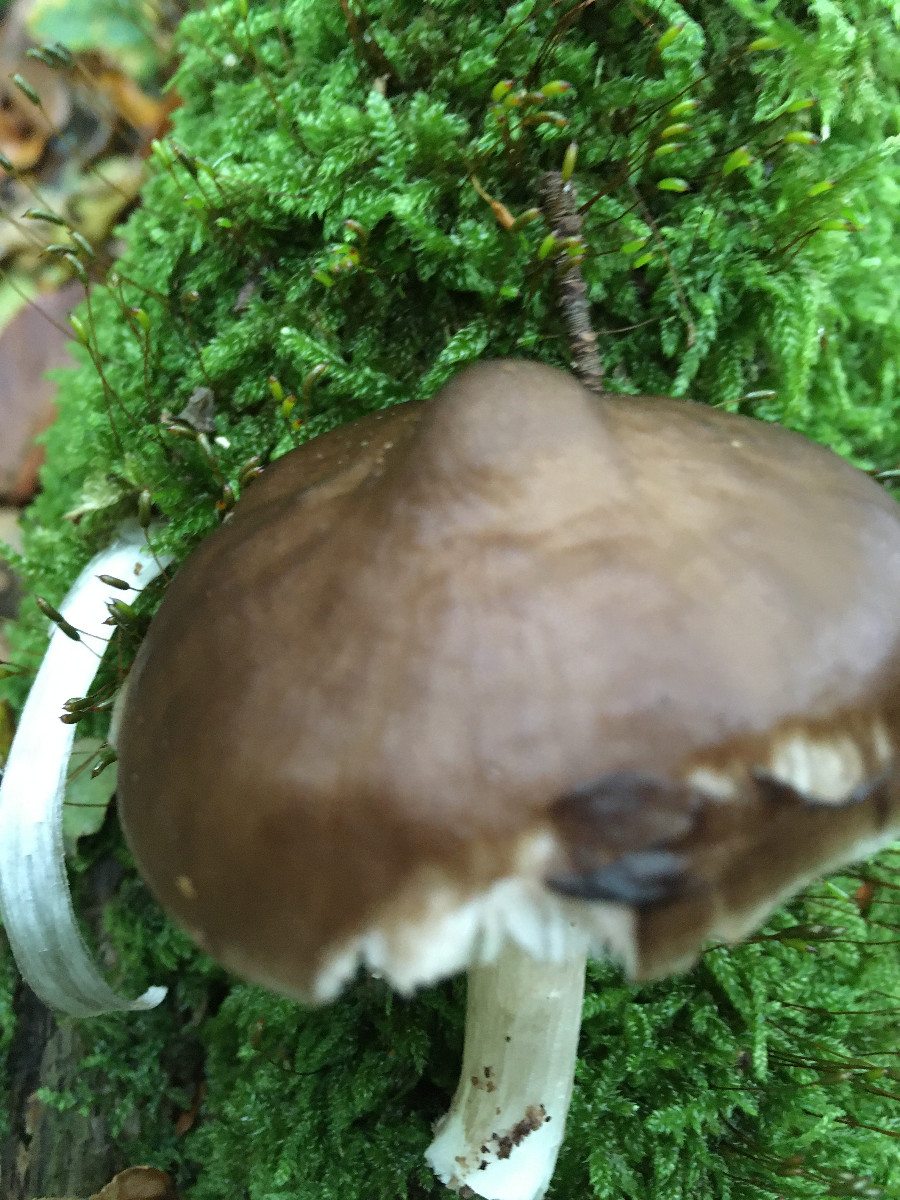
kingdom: Fungi
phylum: Basidiomycota
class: Agaricomycetes
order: Agaricales
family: Pluteaceae
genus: Pluteus
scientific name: Pluteus cervinus
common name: sodfarvet skærmhat
